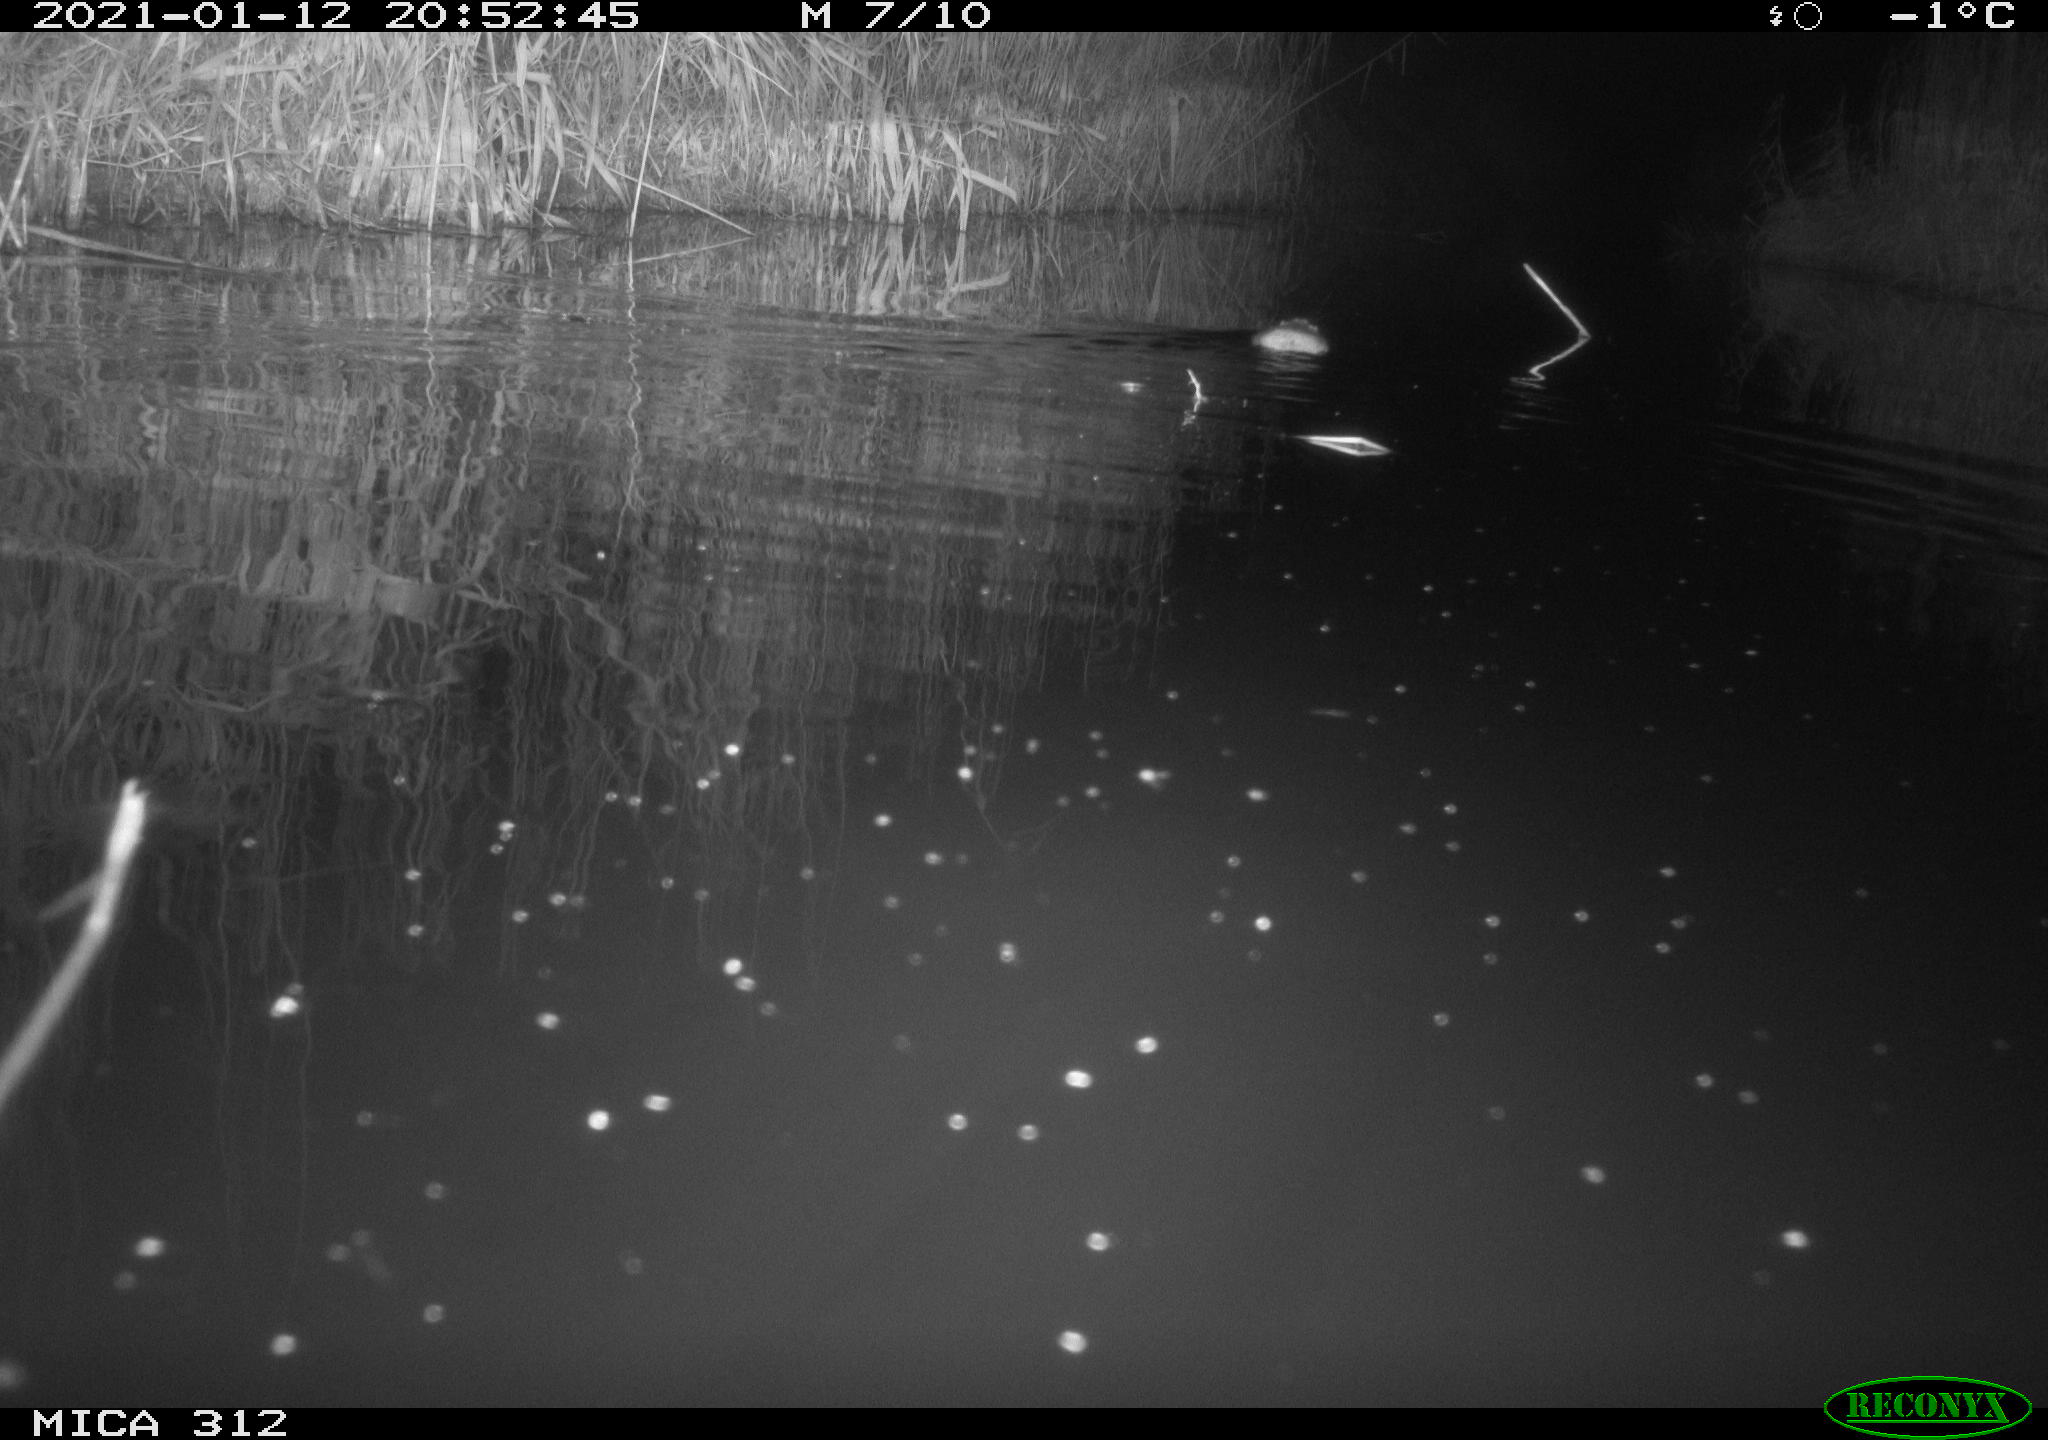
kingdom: Animalia
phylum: Chordata
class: Mammalia
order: Rodentia
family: Muridae
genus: Rattus
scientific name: Rattus norvegicus
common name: Brown rat
